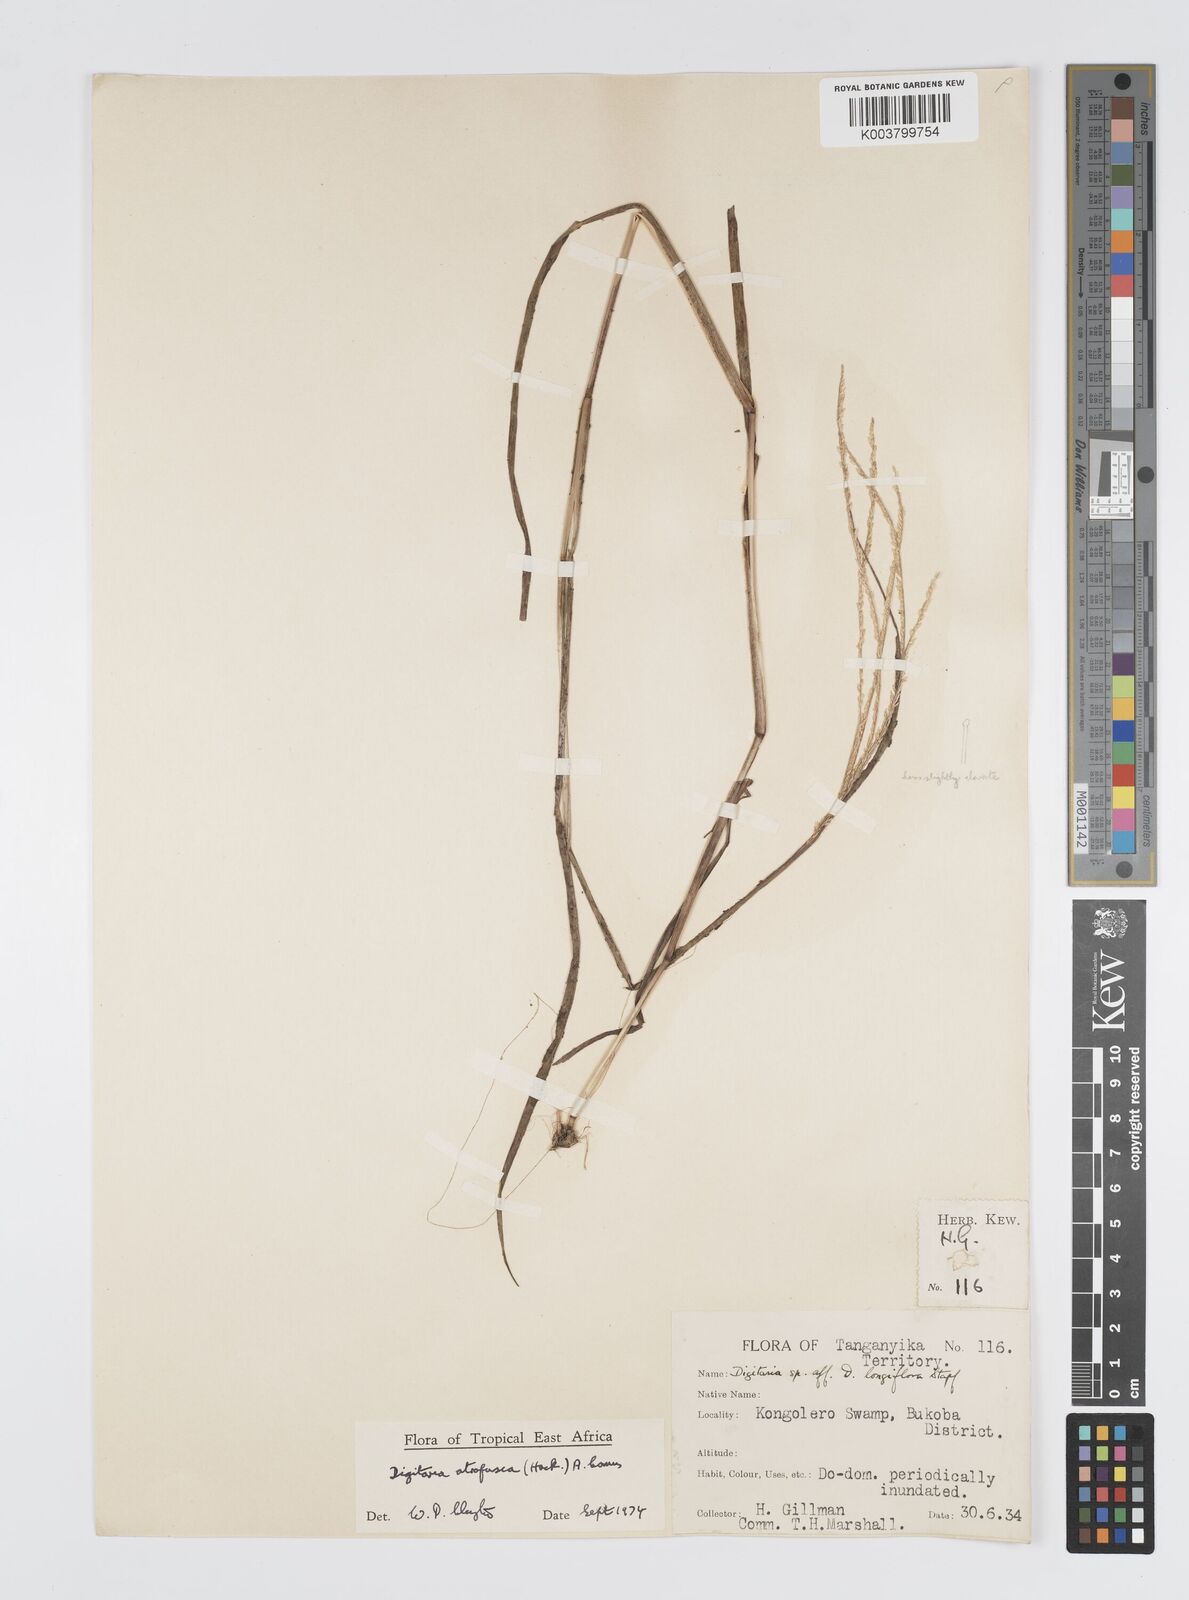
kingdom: Plantae
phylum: Tracheophyta
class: Liliopsida
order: Poales
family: Poaceae
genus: Digitaria
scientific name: Digitaria atrofusca
